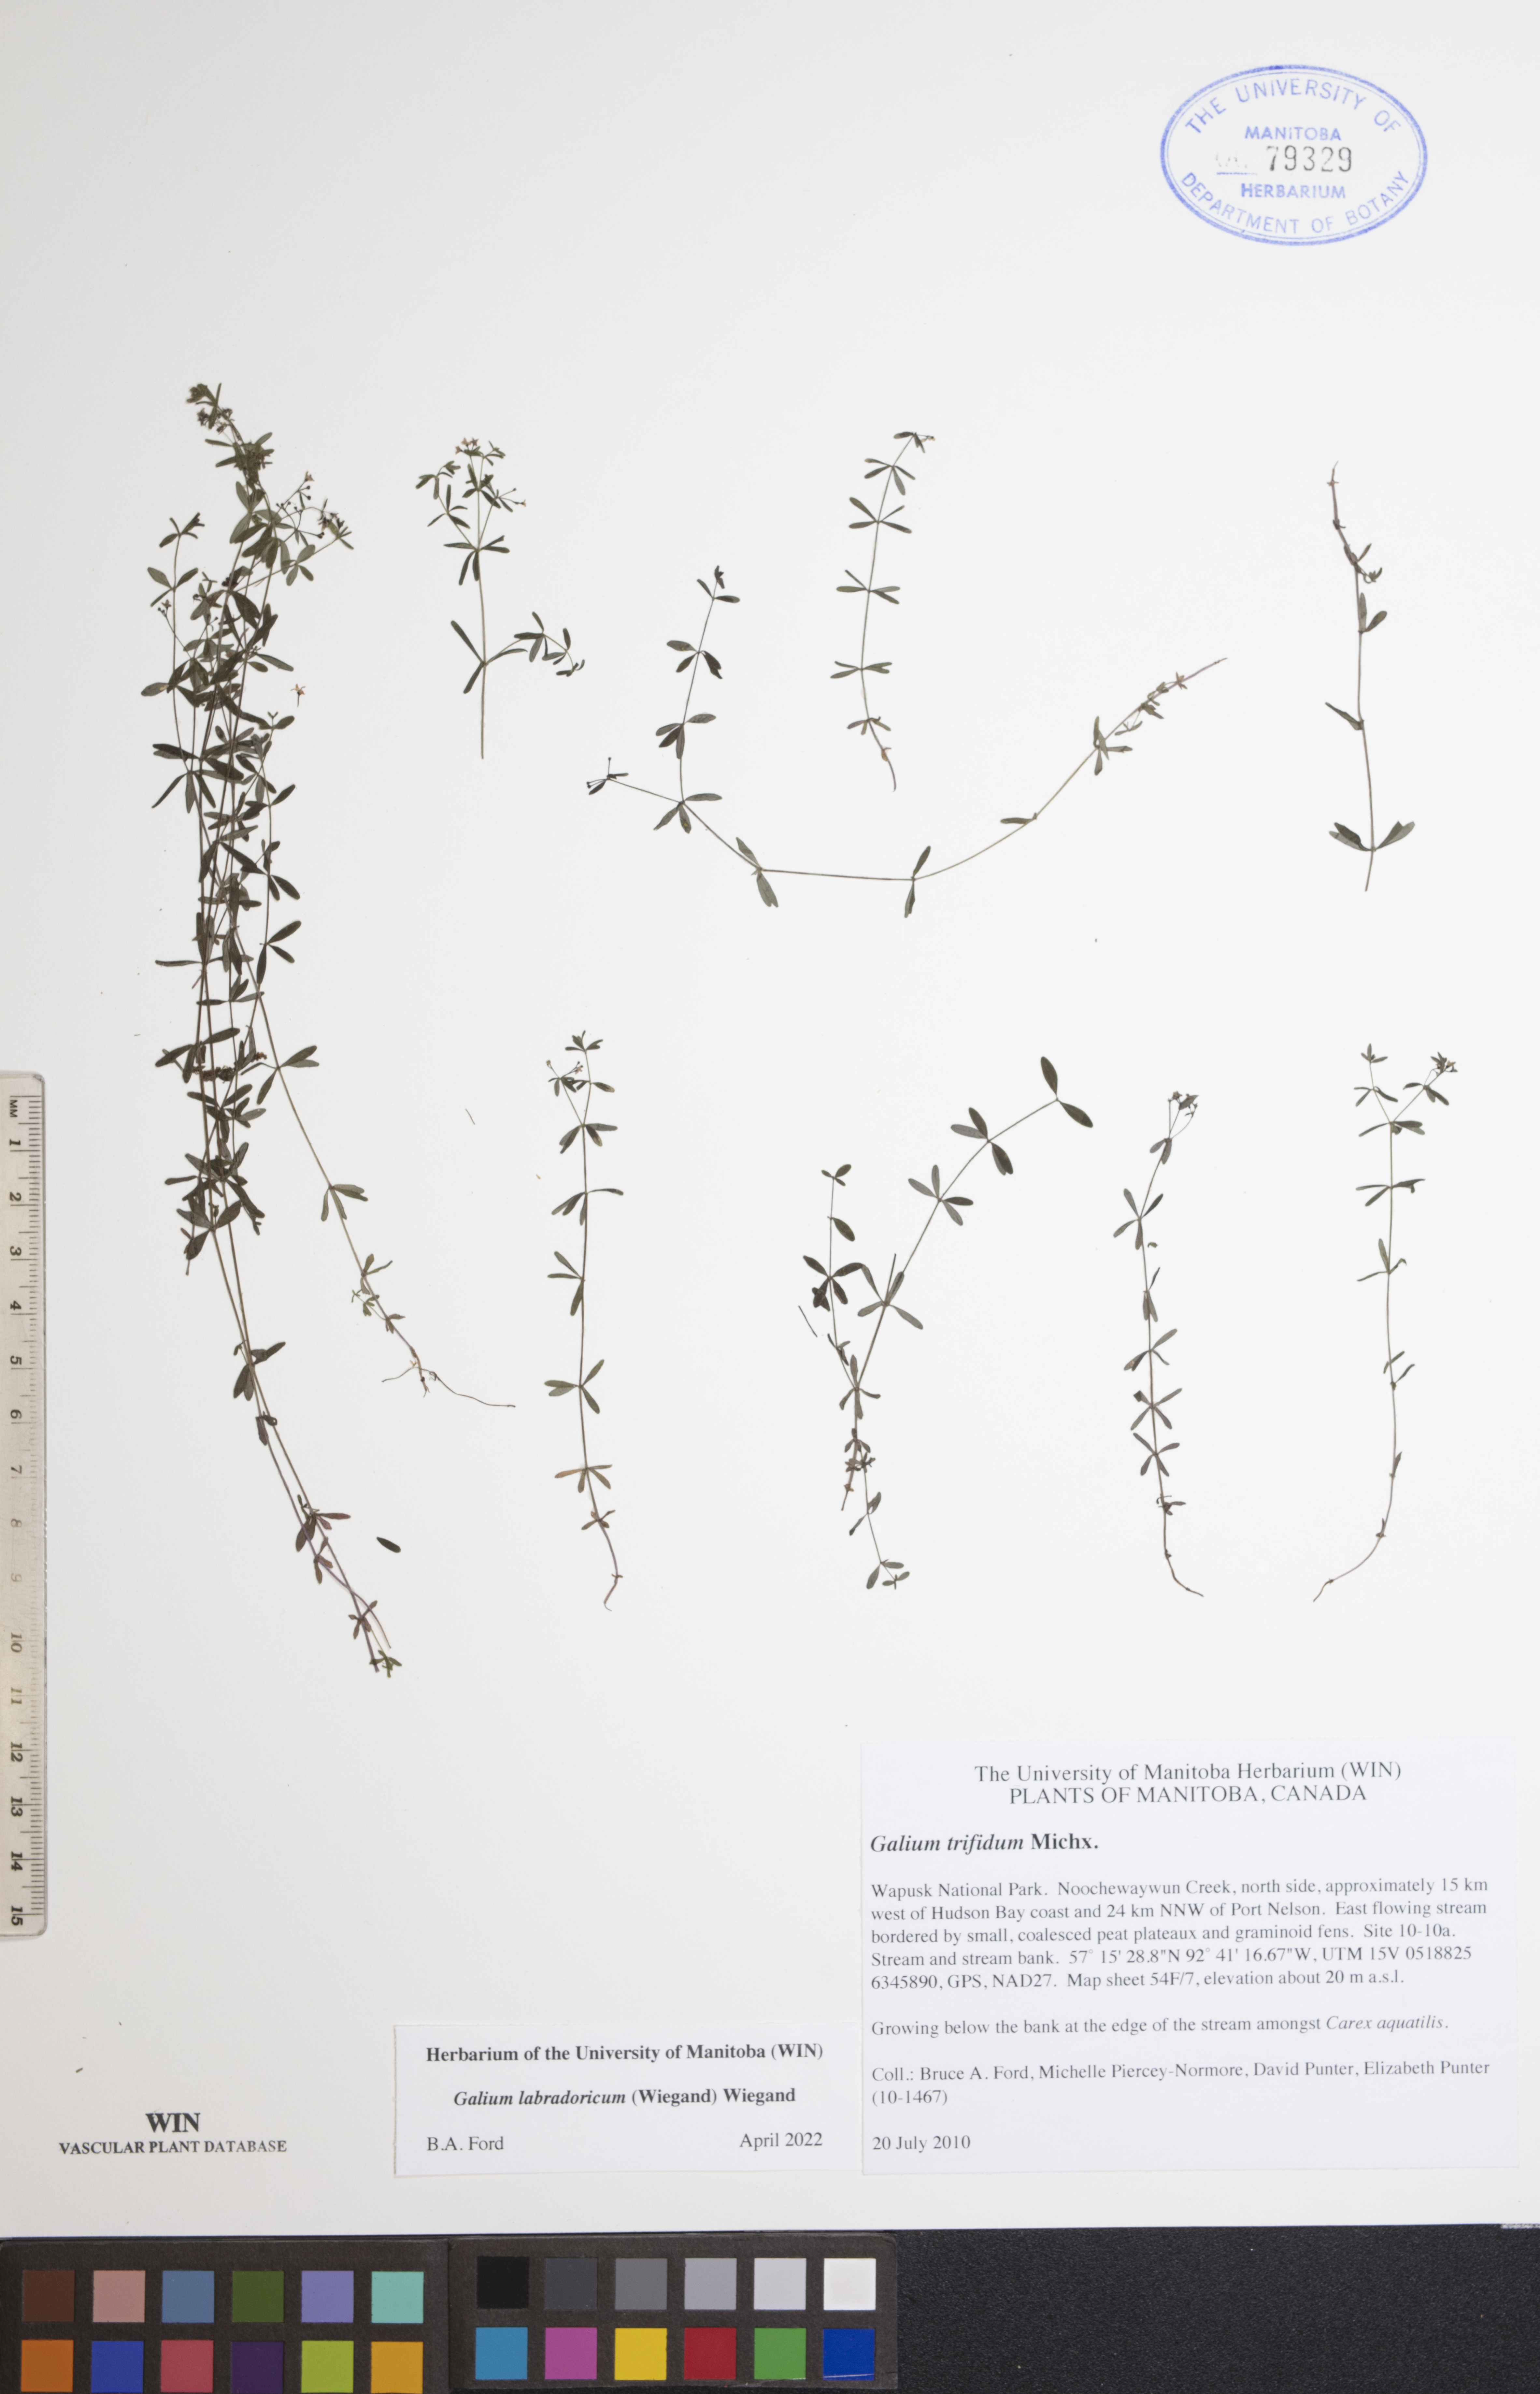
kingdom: Plantae
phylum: Tracheophyta
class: Magnoliopsida
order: Gentianales
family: Rubiaceae
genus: Galium
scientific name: Galium labradoricum
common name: Labrador bedstraw
